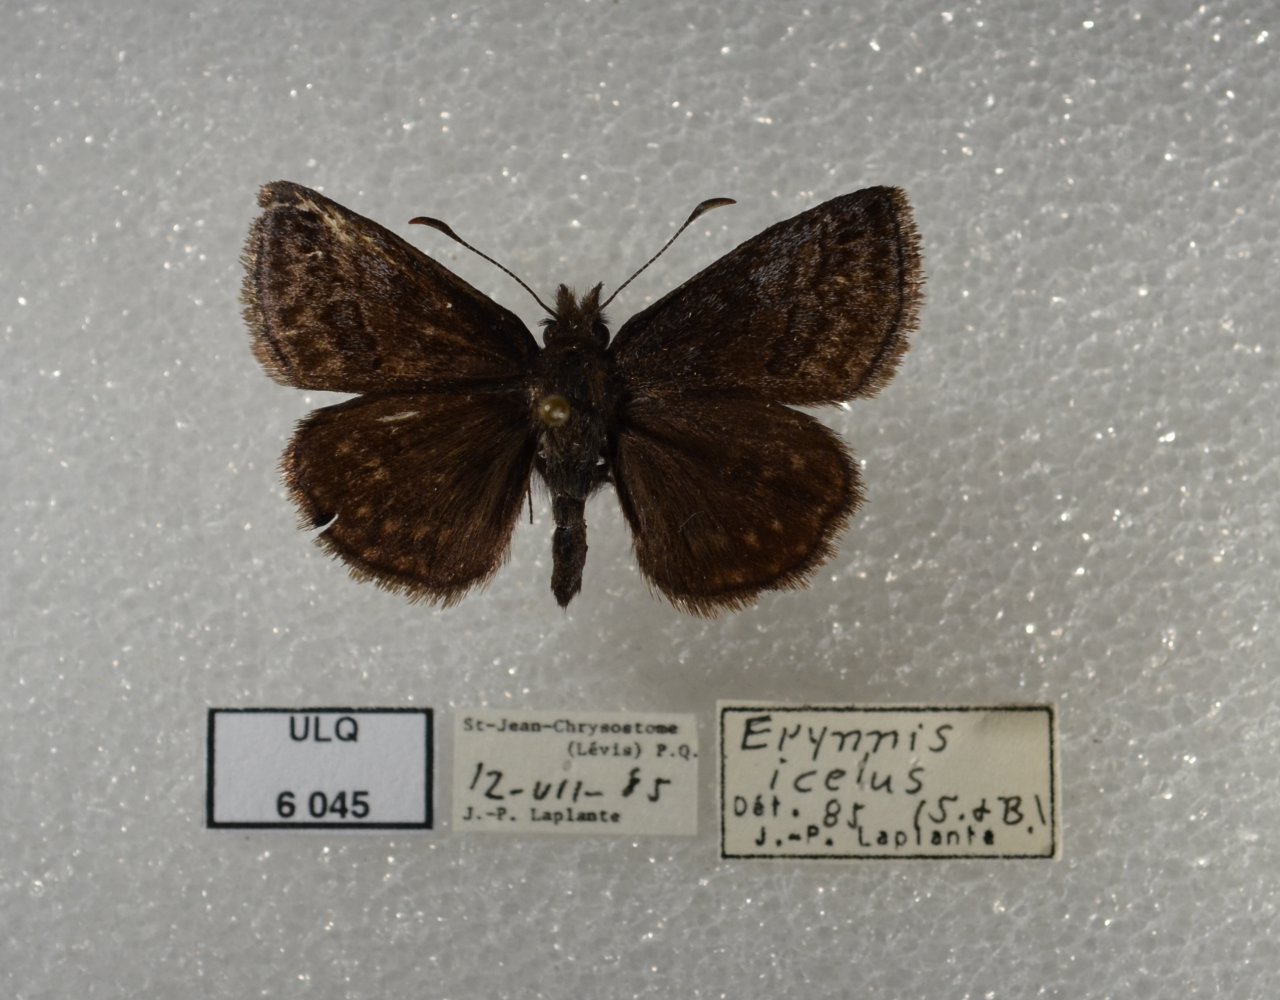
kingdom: Animalia
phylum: Arthropoda
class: Insecta
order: Lepidoptera
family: Hesperiidae
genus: Erynnis
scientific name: Erynnis icelus
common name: Dreamy Duskywing
